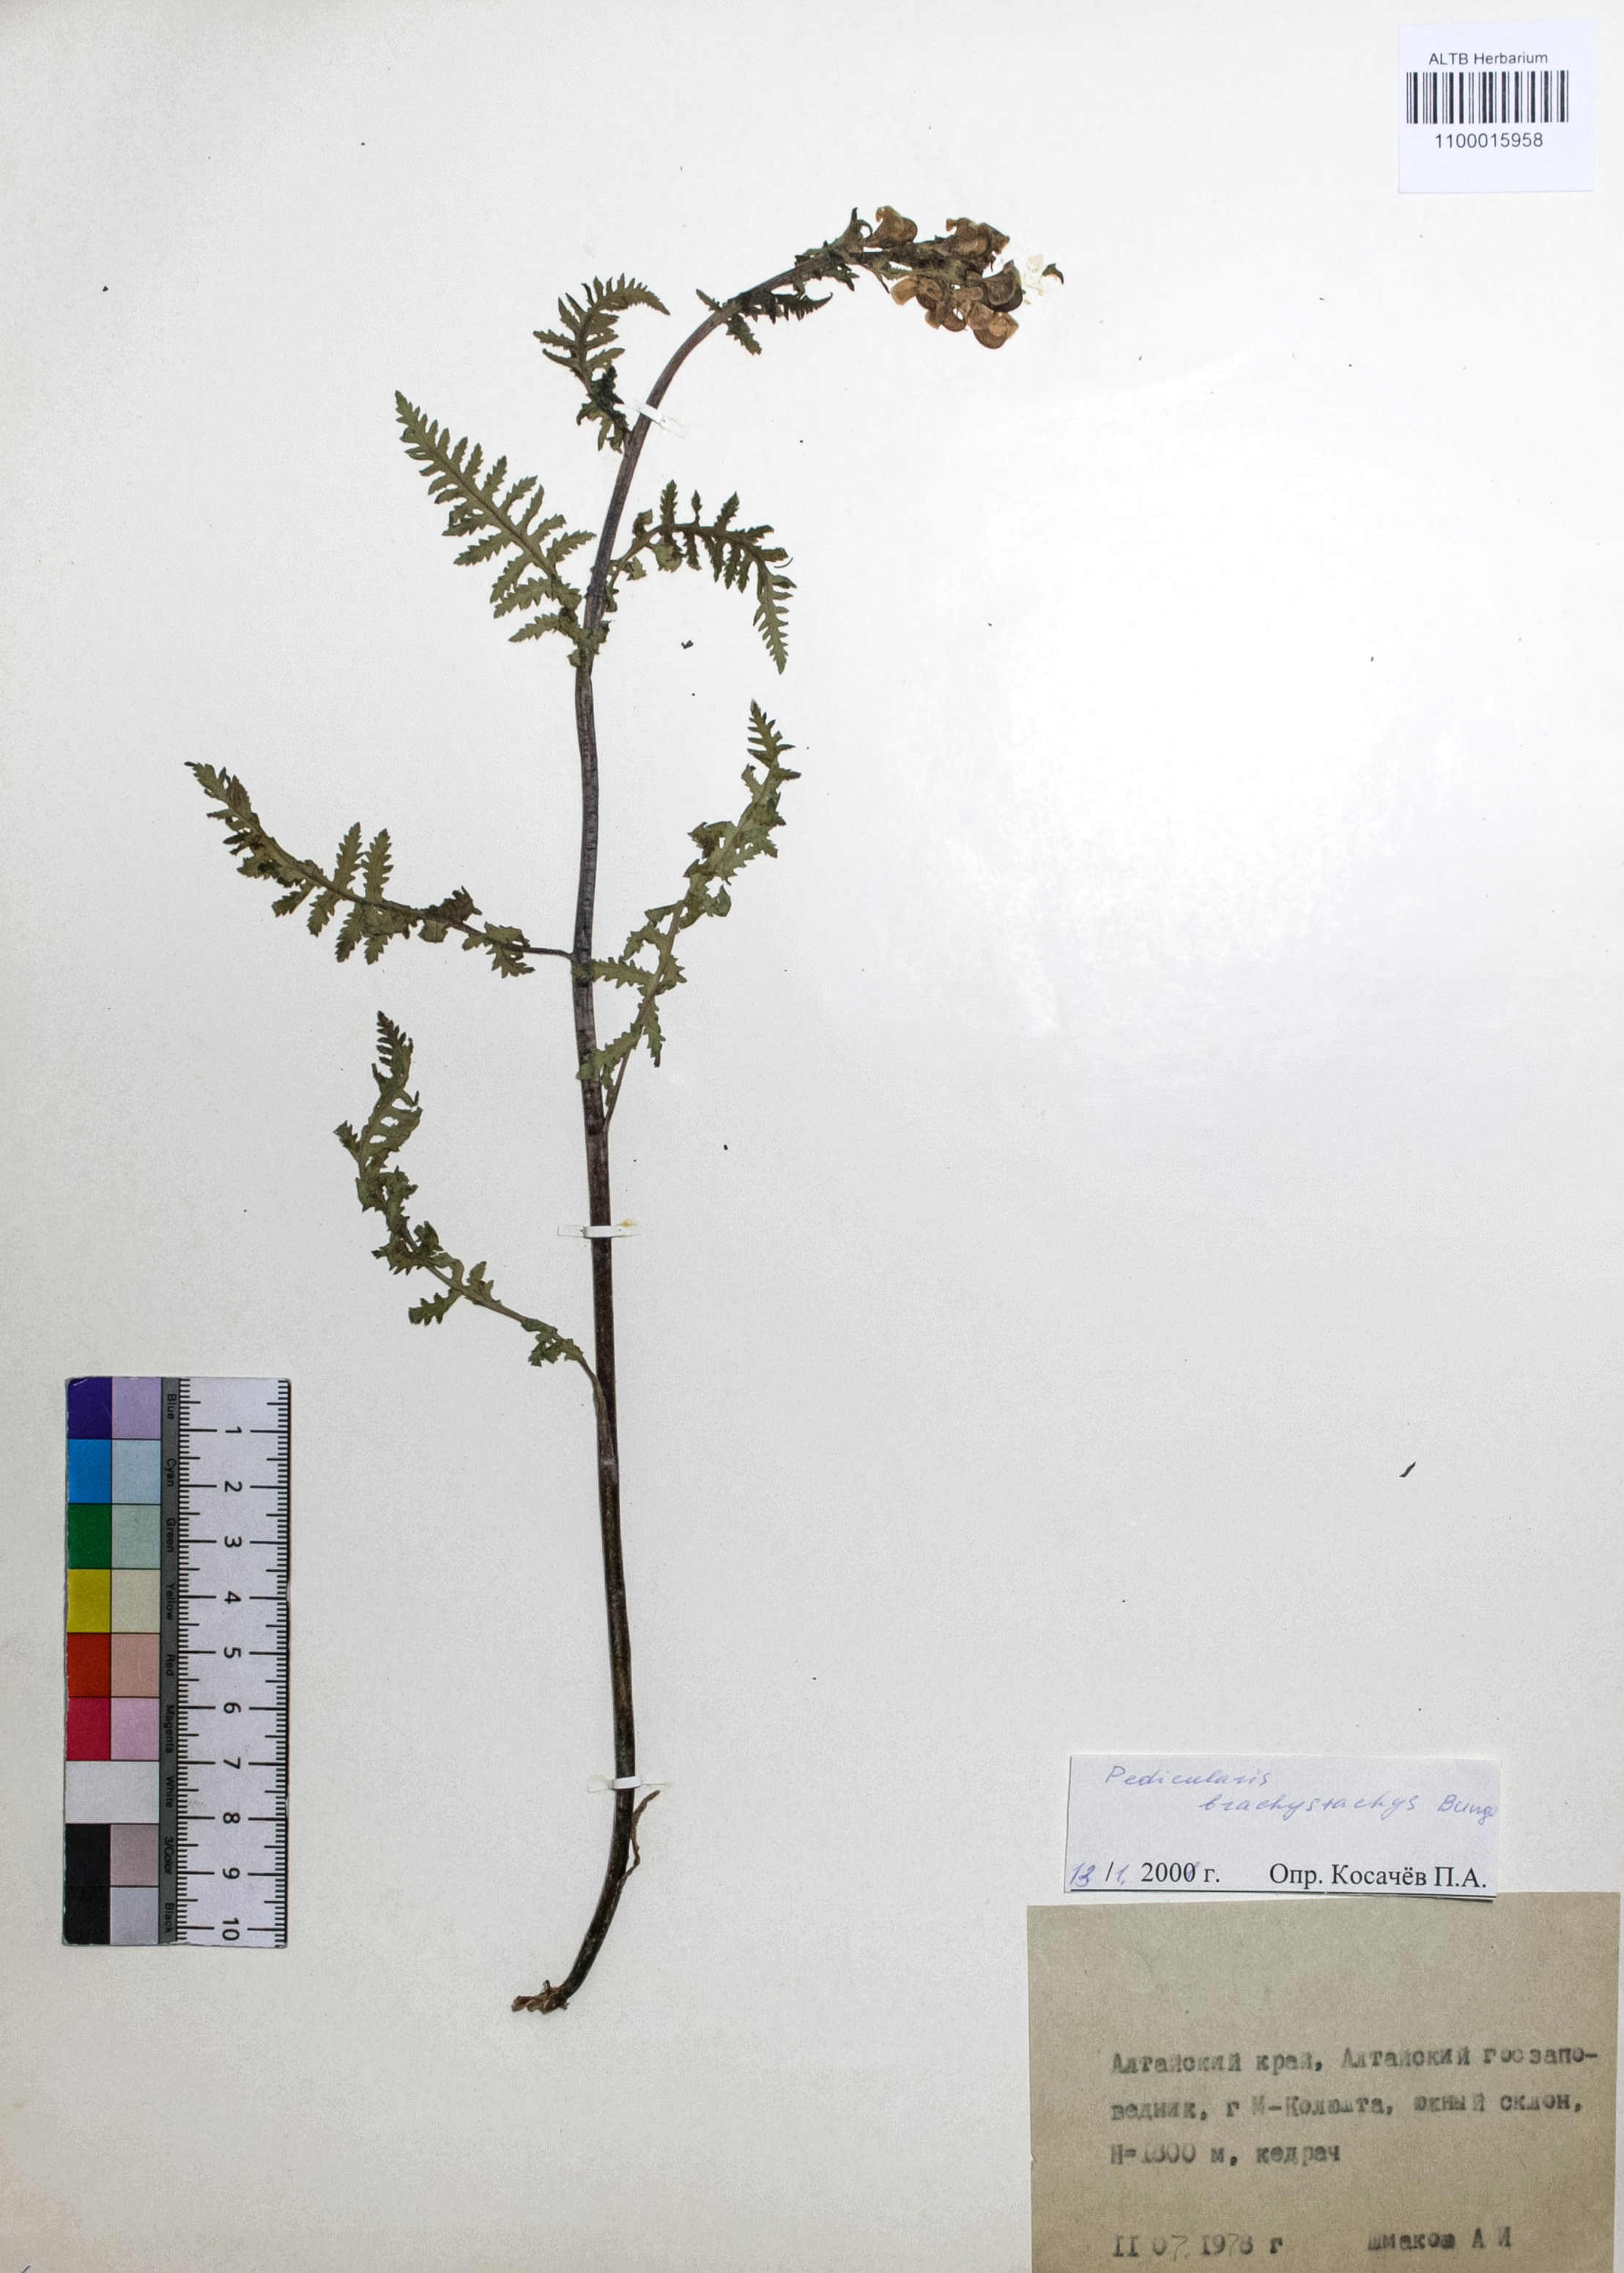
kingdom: Plantae
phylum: Tracheophyta
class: Magnoliopsida
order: Lamiales
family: Orobanchaceae
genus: Pedicularis
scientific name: Pedicularis compacta
